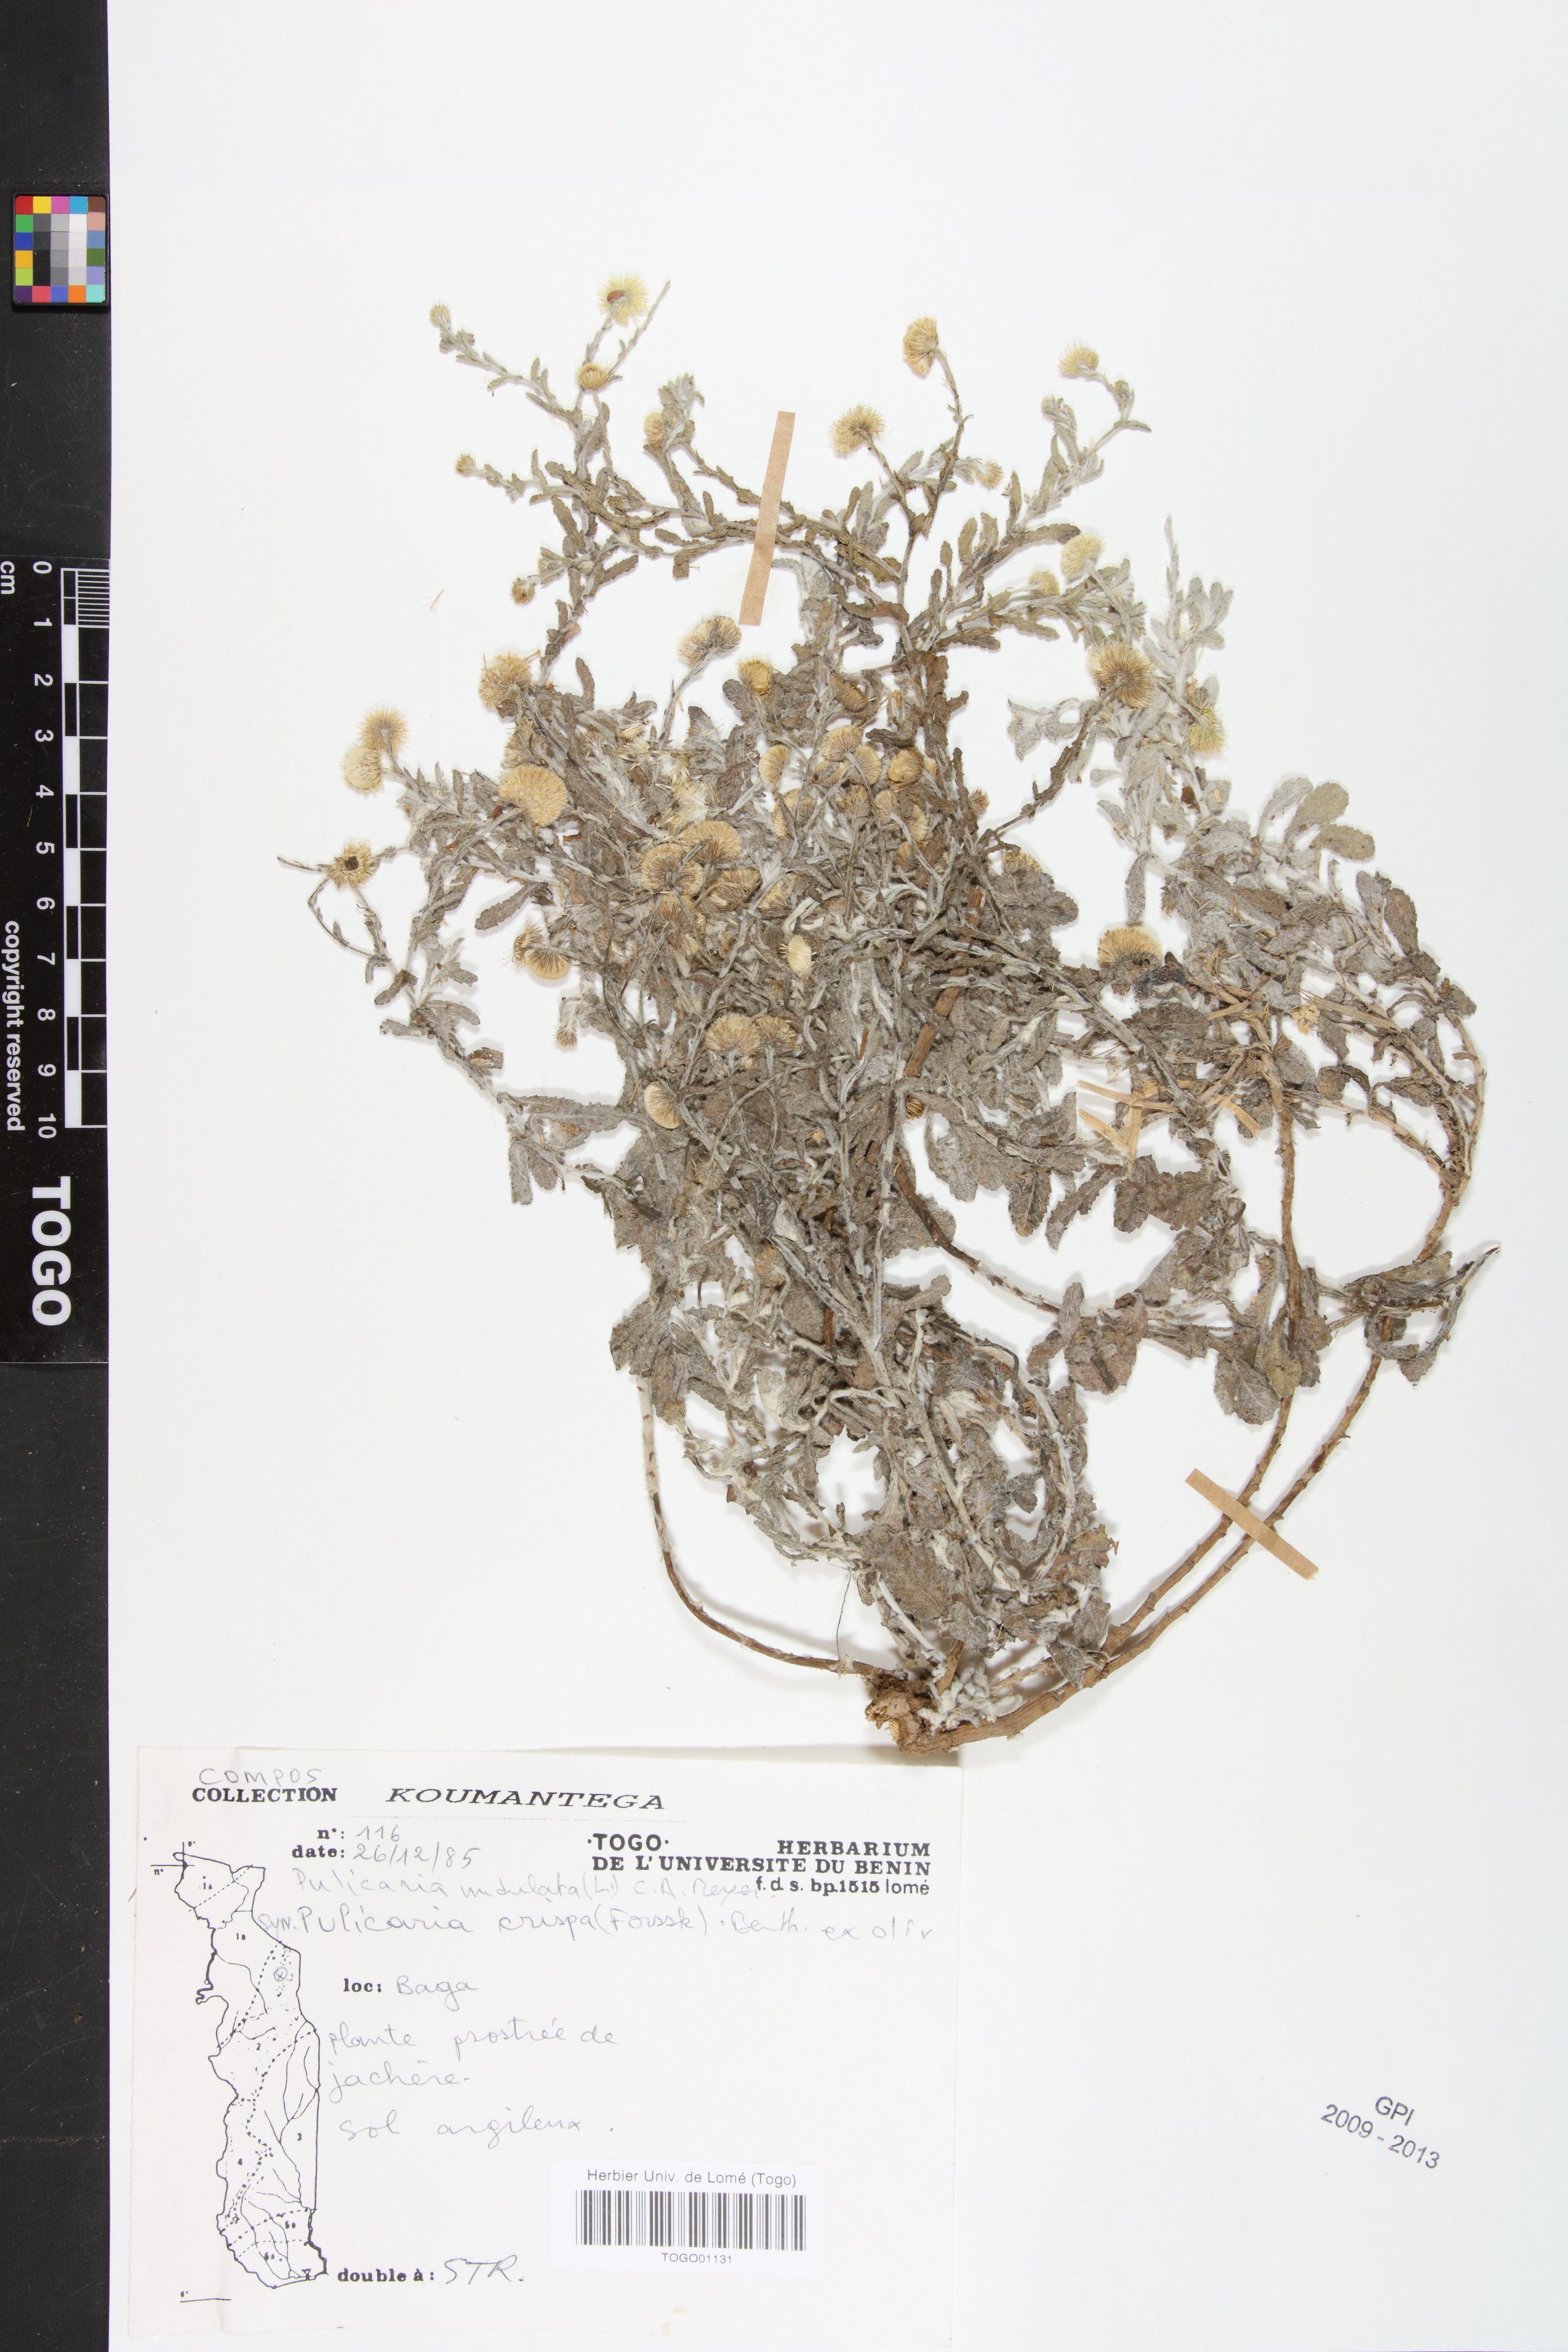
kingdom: Plantae
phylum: Tracheophyta
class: Magnoliopsida
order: Asterales
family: Asteraceae
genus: Pulicaria
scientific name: Pulicaria undulata
